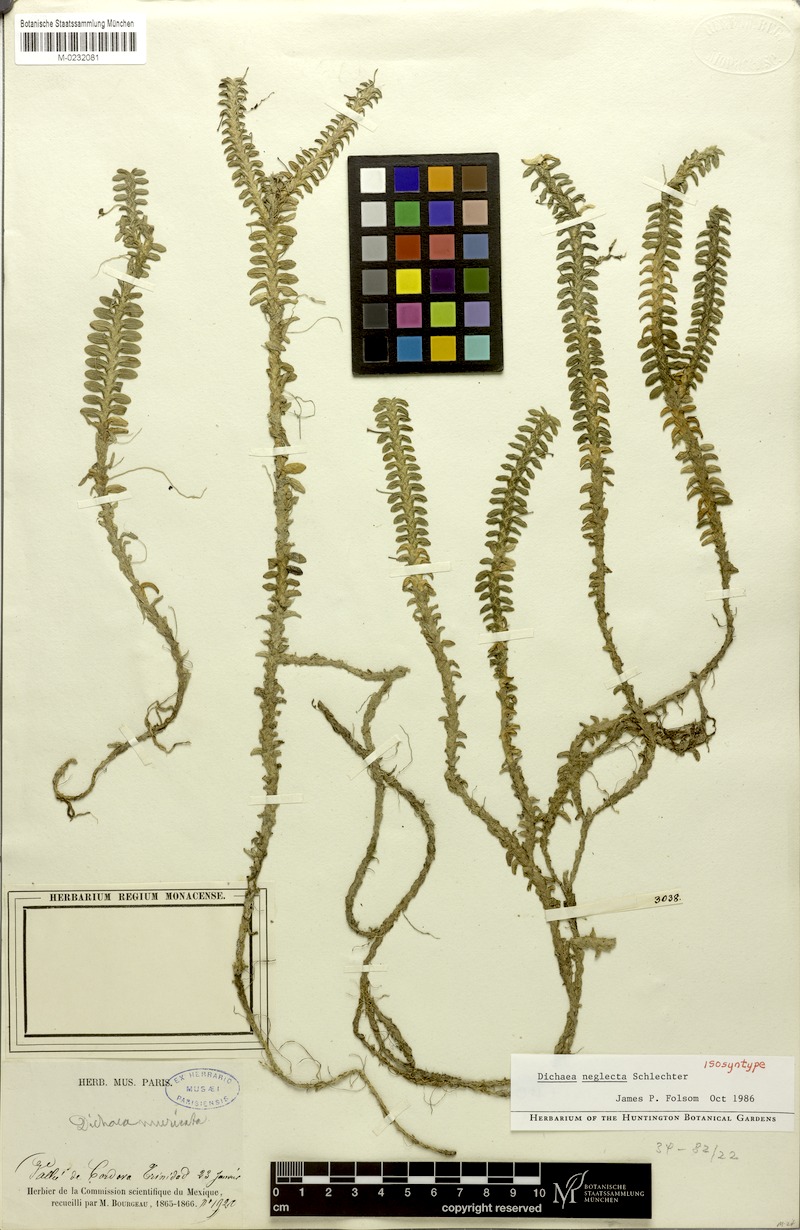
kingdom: Plantae
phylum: Tracheophyta
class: Liliopsida
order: Asparagales
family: Orchidaceae
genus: Dichaea
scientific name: Dichaea neglecta
